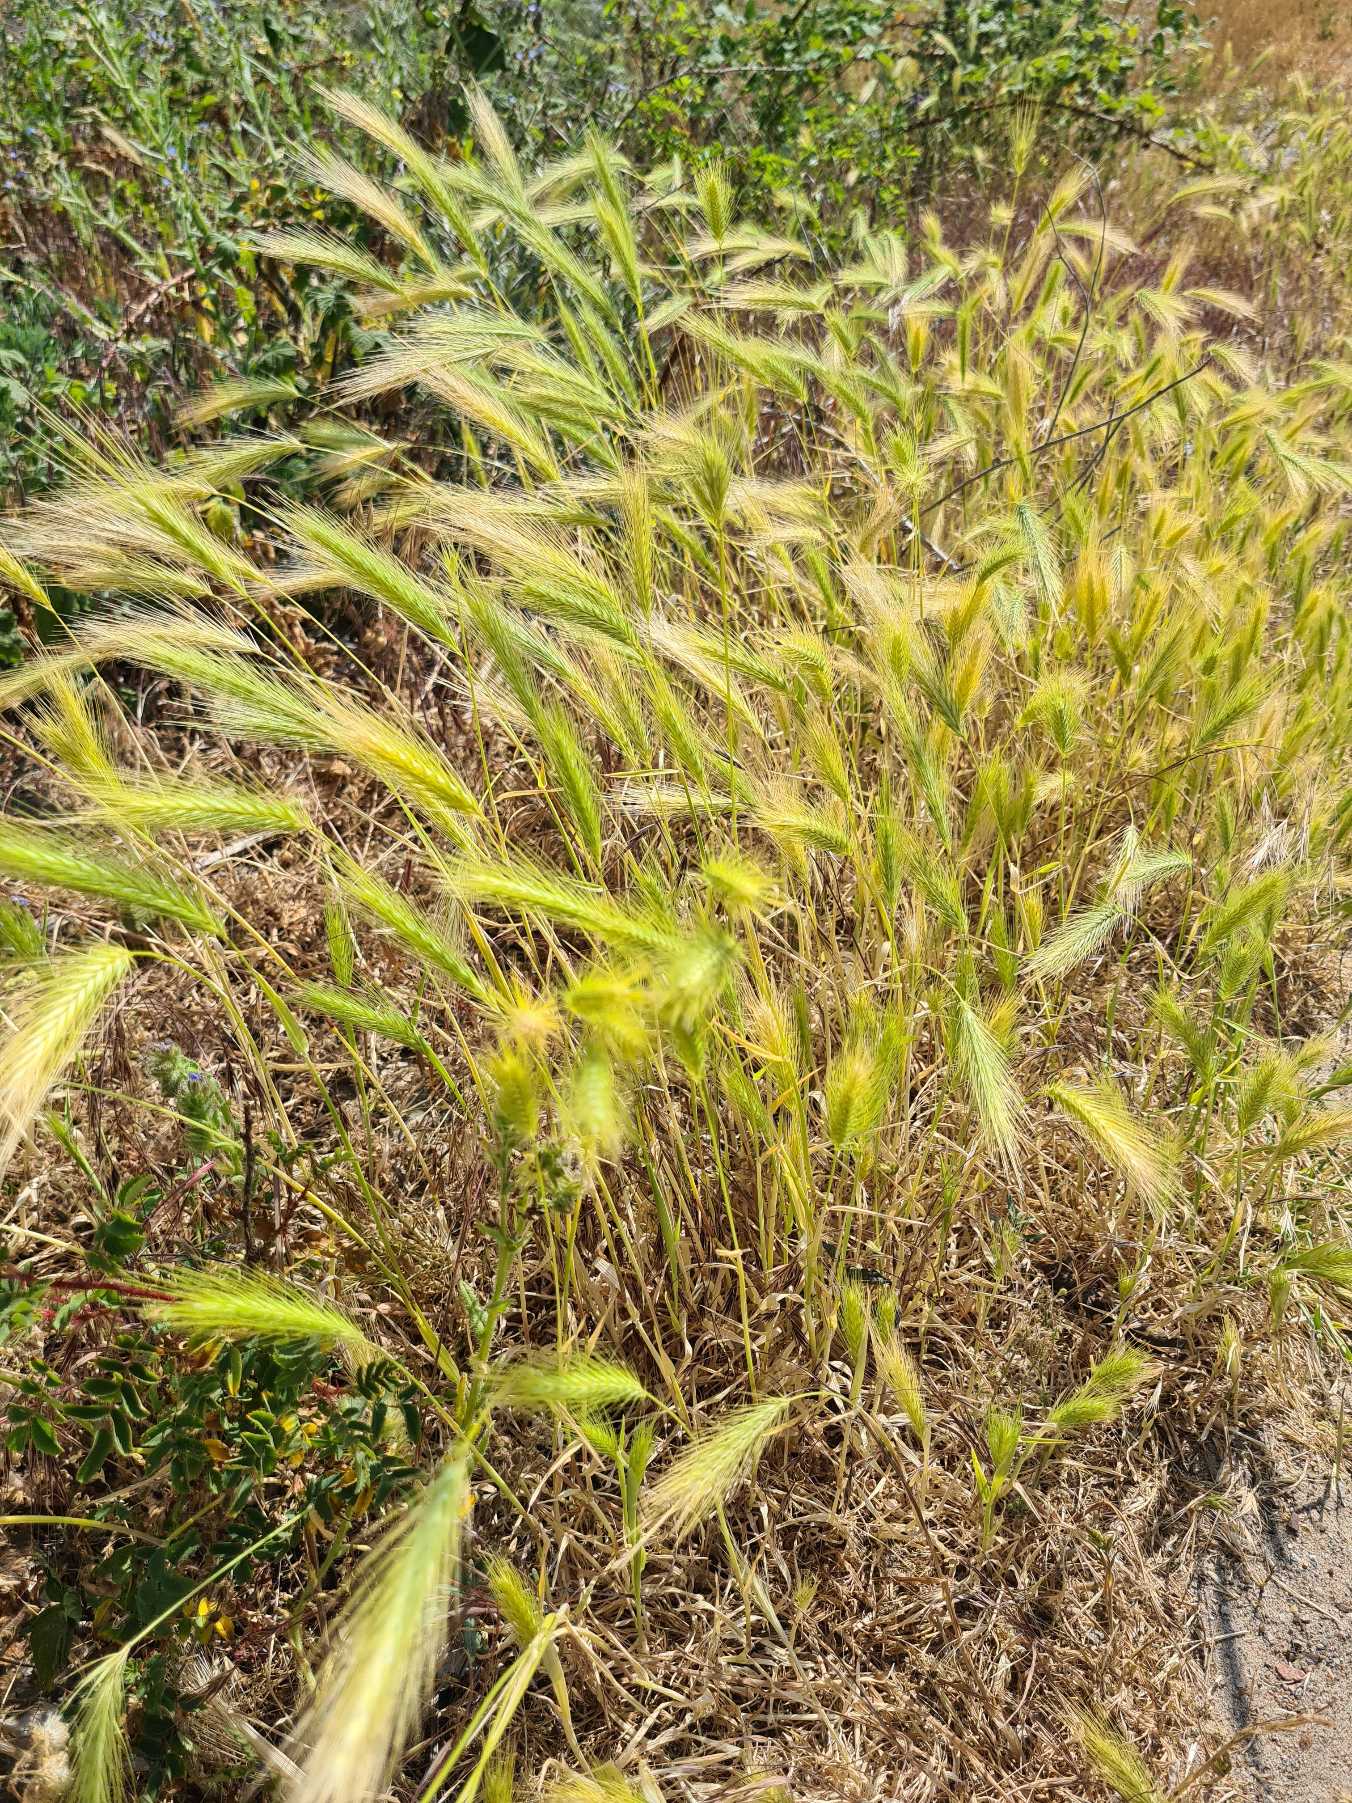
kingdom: Plantae
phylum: Tracheophyta
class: Liliopsida
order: Poales
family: Poaceae
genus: Hordeum
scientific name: Hordeum murinum
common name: Gold byg
